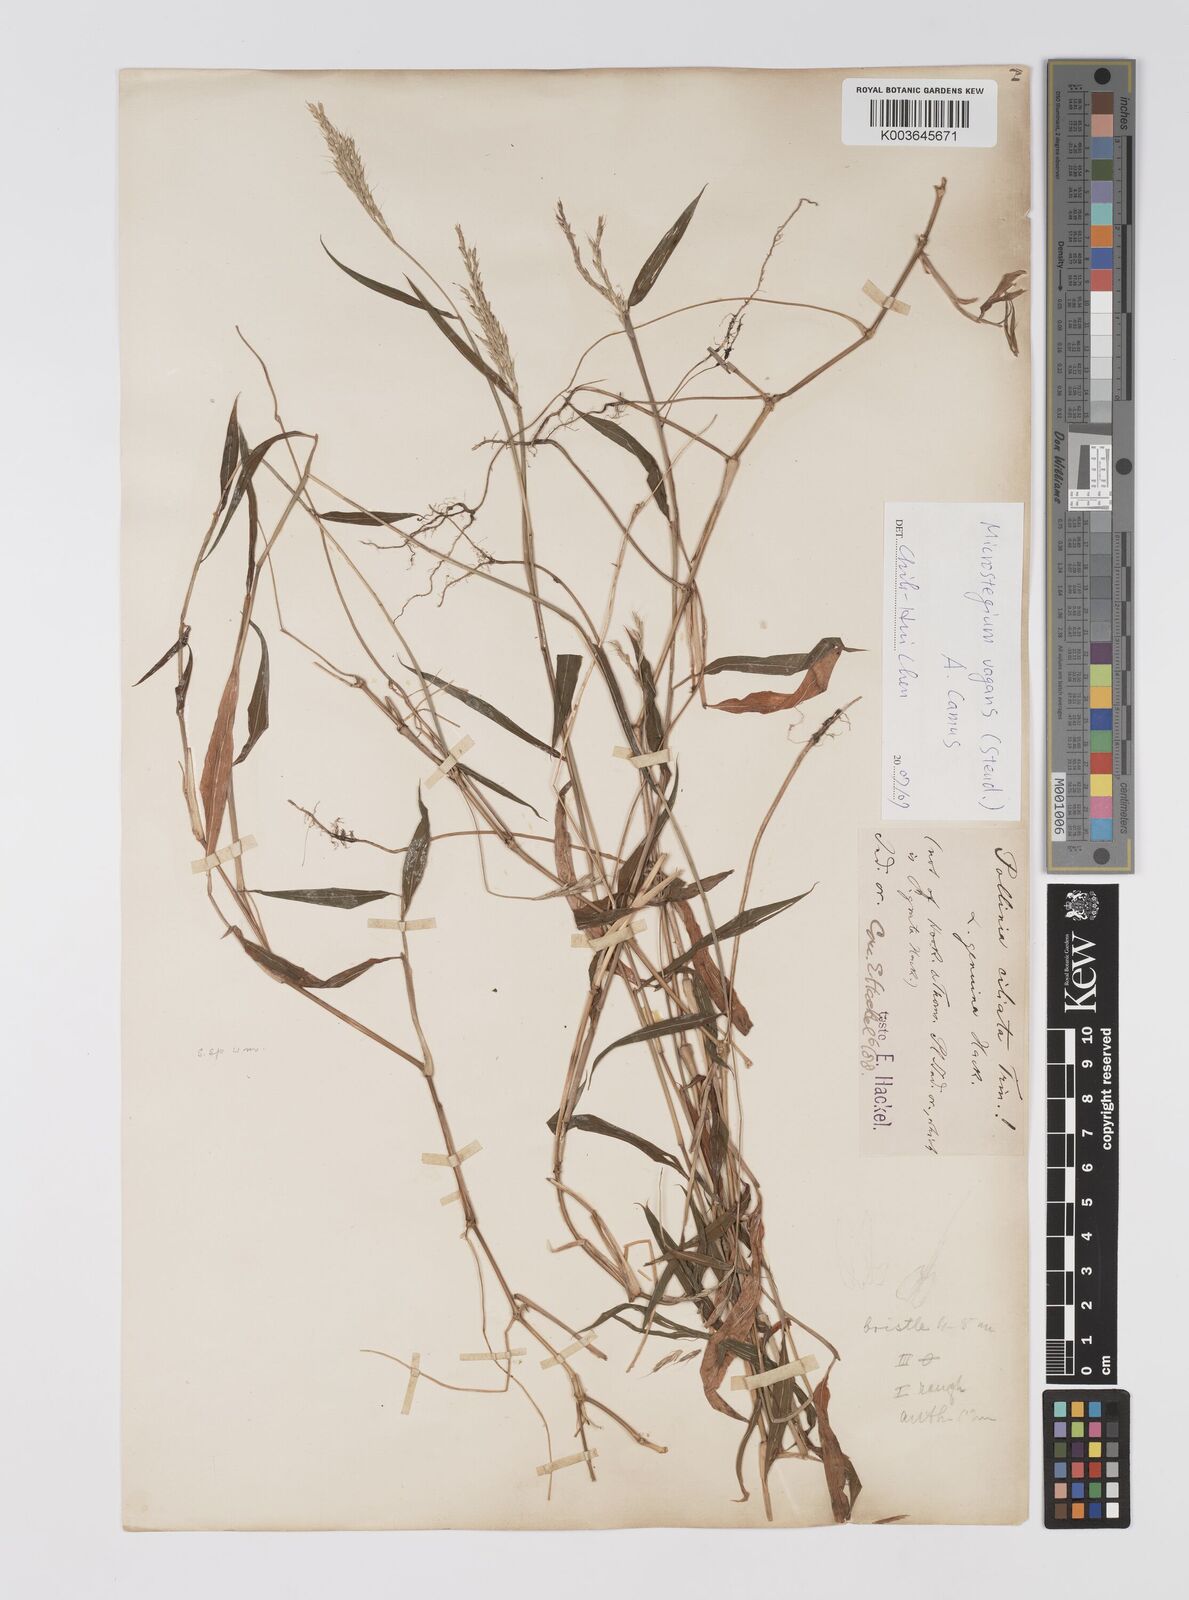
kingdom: Plantae
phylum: Tracheophyta
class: Liliopsida
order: Poales
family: Poaceae
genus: Microstegium
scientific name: Microstegium fasciculatum
